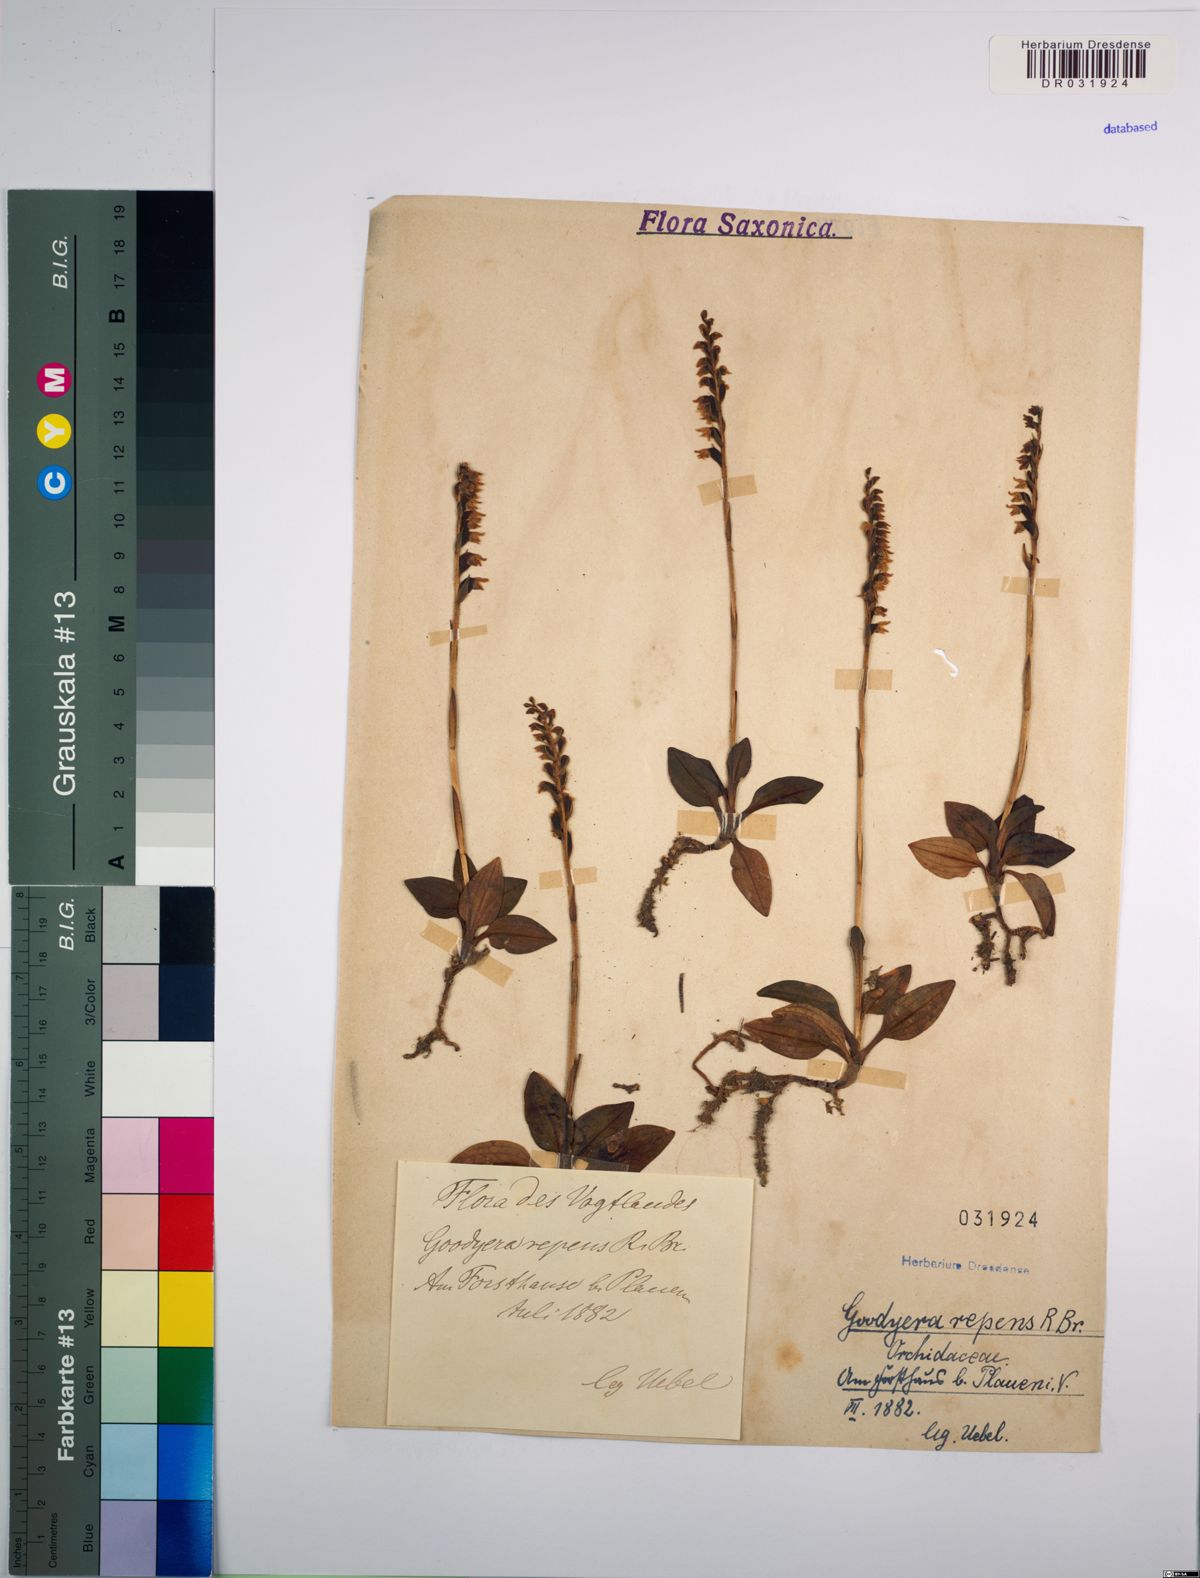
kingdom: Plantae
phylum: Tracheophyta
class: Liliopsida
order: Asparagales
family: Orchidaceae
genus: Goodyera
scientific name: Goodyera repens
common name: Creeping lady's-tresses
